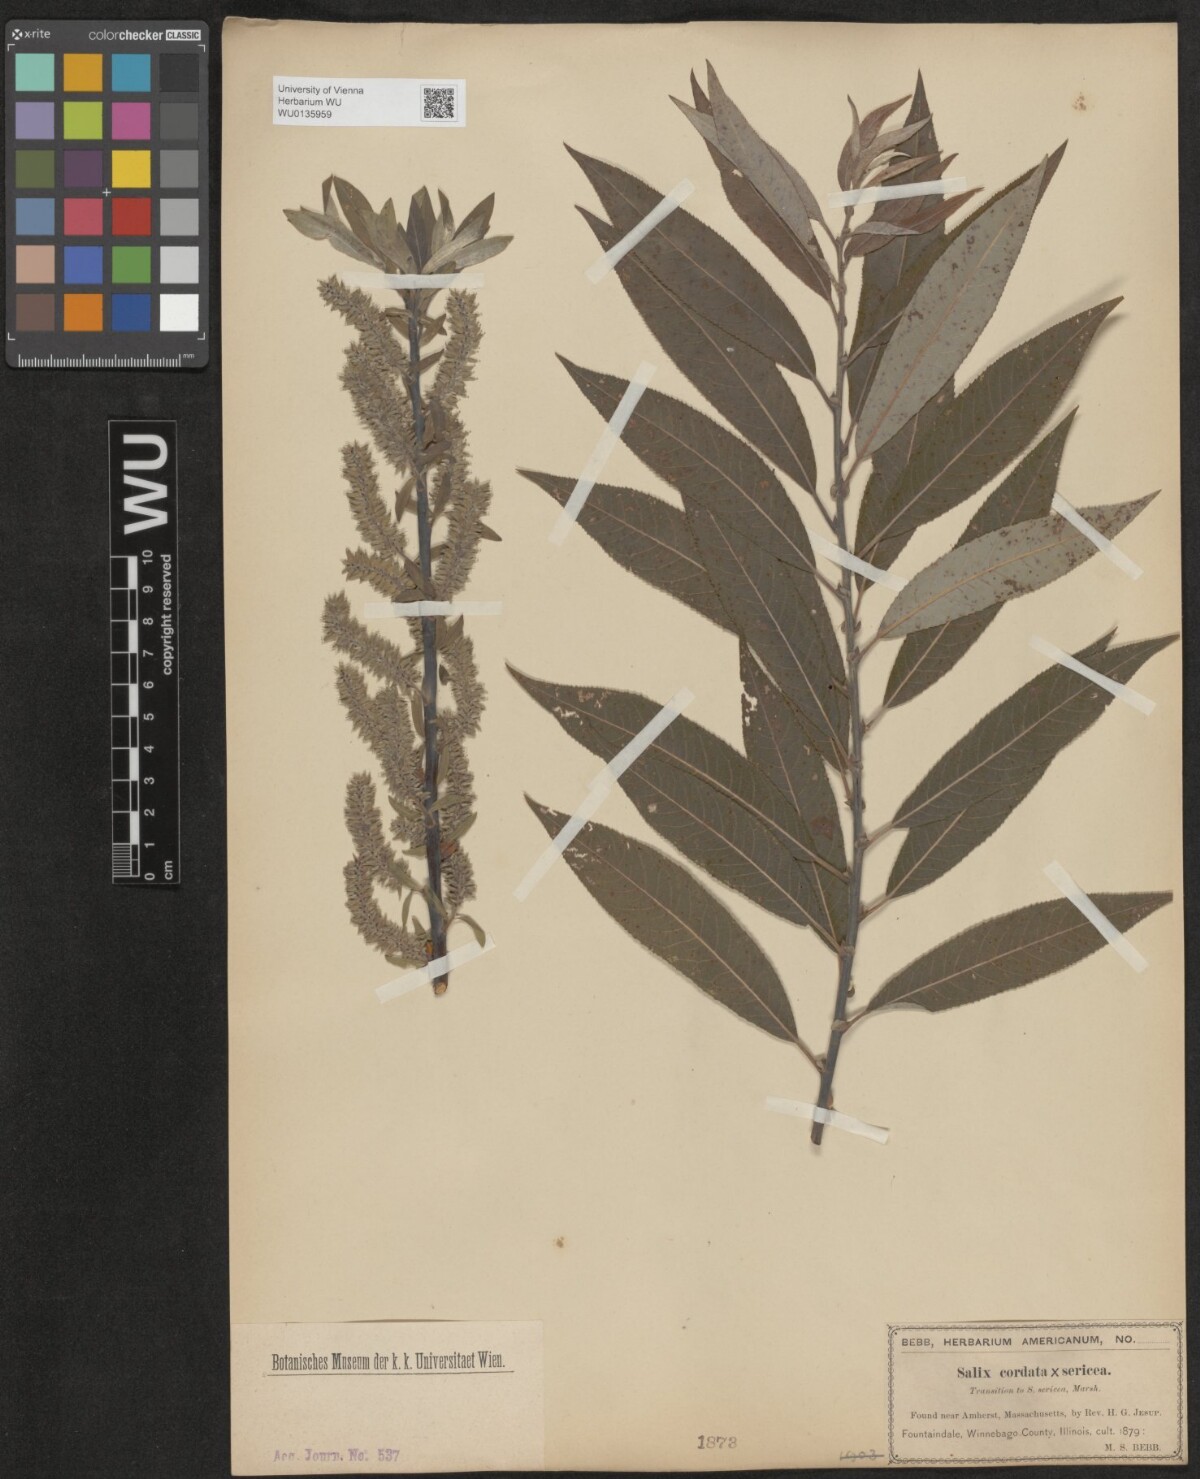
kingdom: Plantae
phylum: Tracheophyta
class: Magnoliopsida
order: Malpighiales
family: Salicaceae
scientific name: Salicaceae
